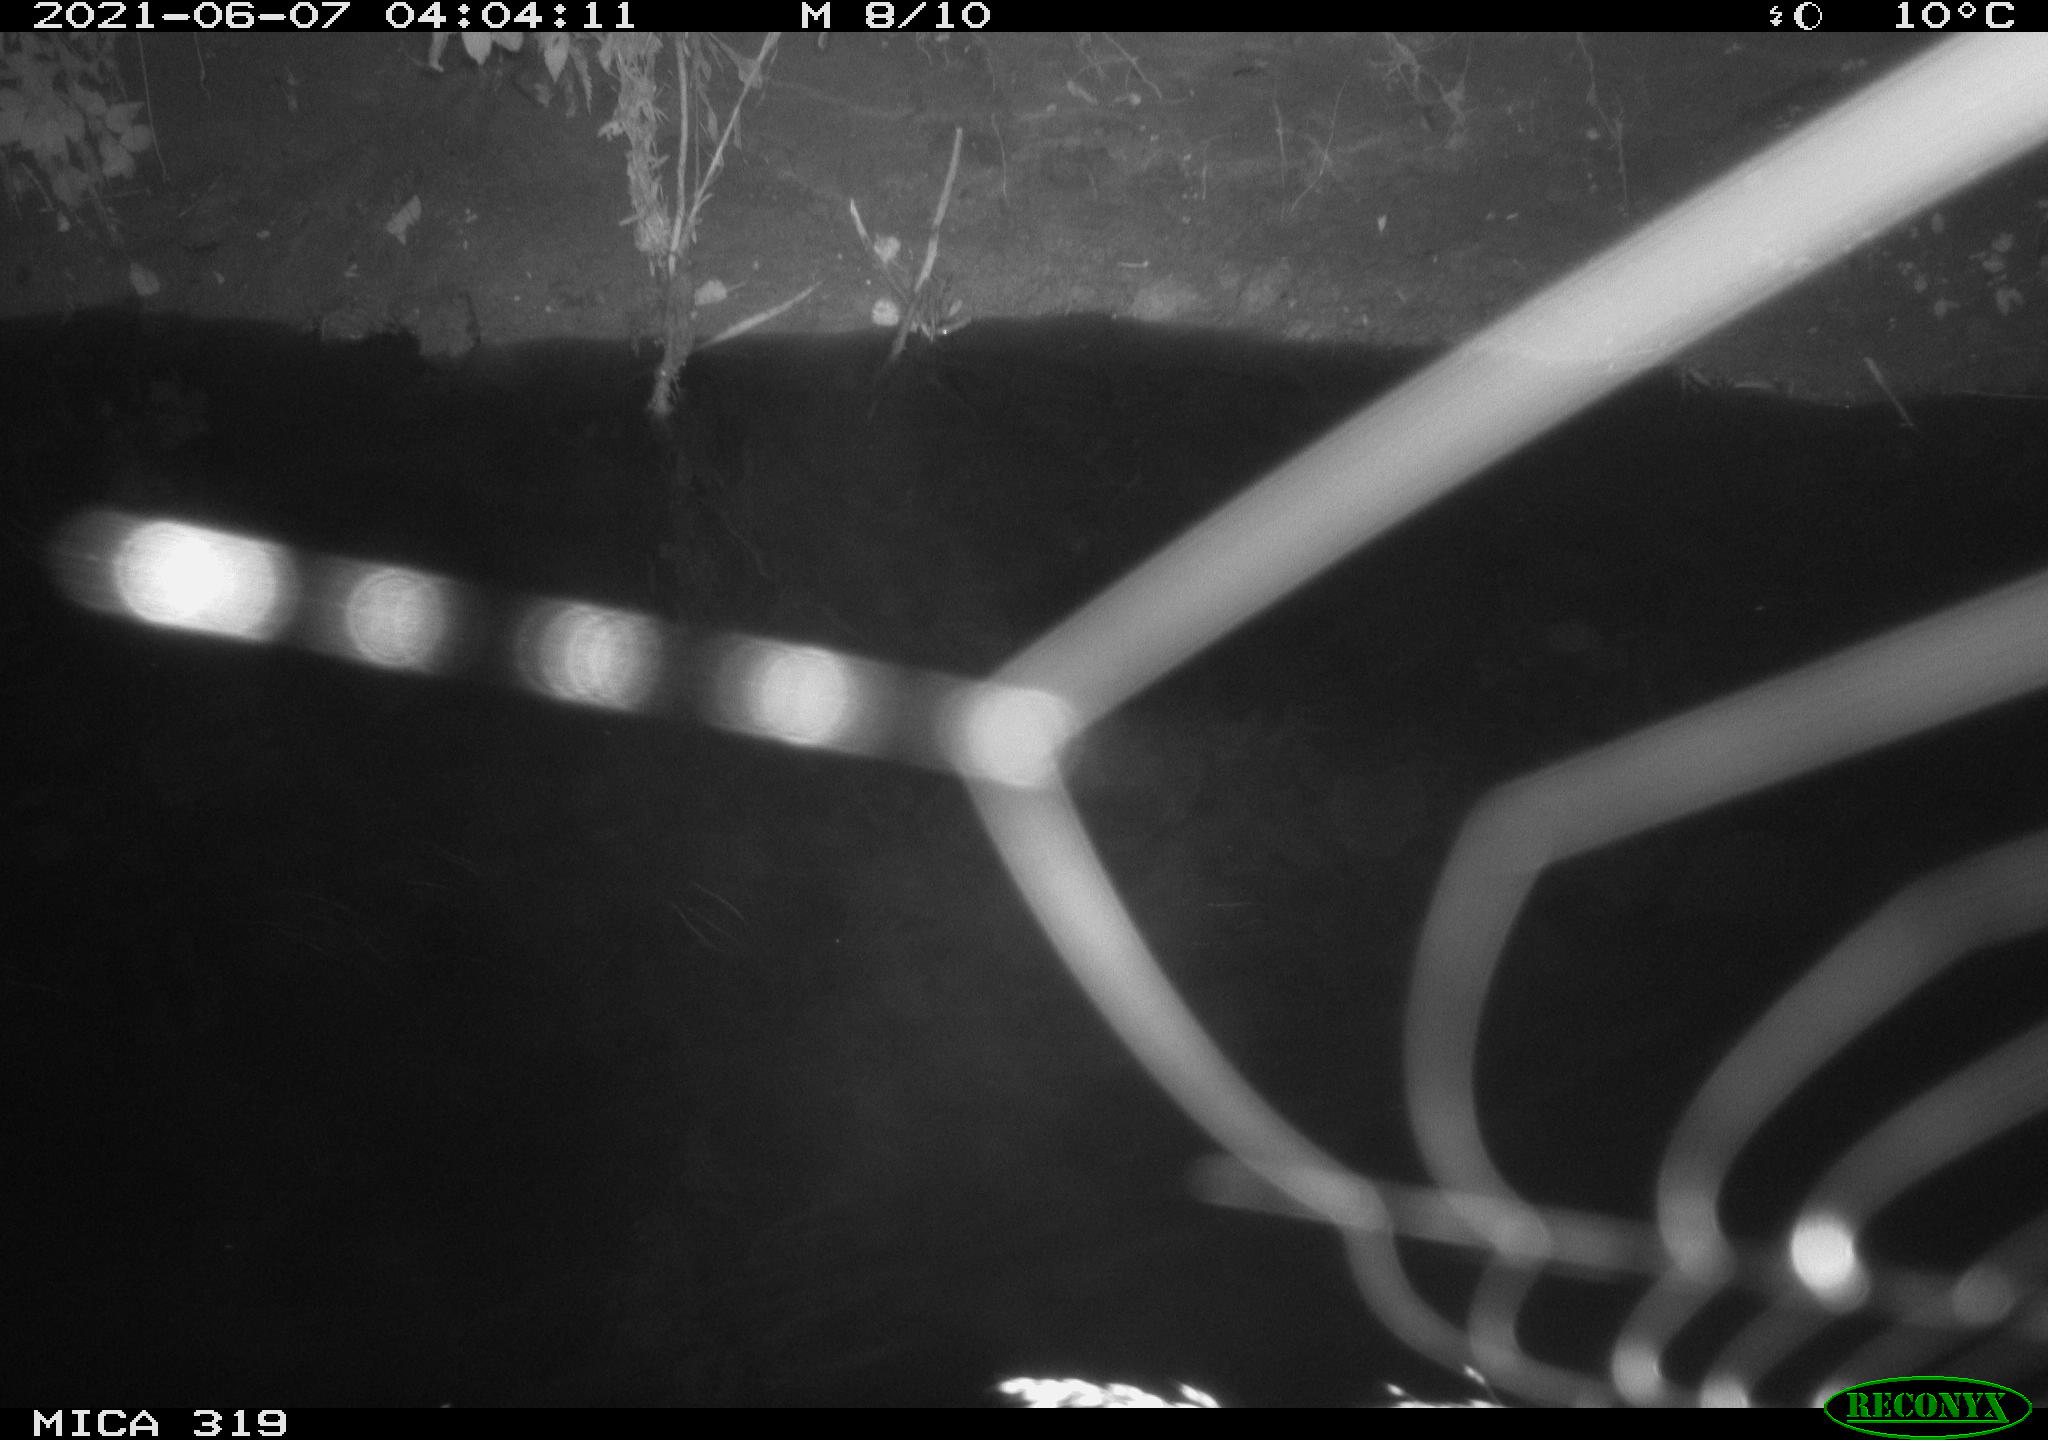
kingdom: Animalia
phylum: Chordata
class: Aves
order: Anseriformes
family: Anatidae
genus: Anas
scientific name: Anas platyrhynchos
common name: Mallard
